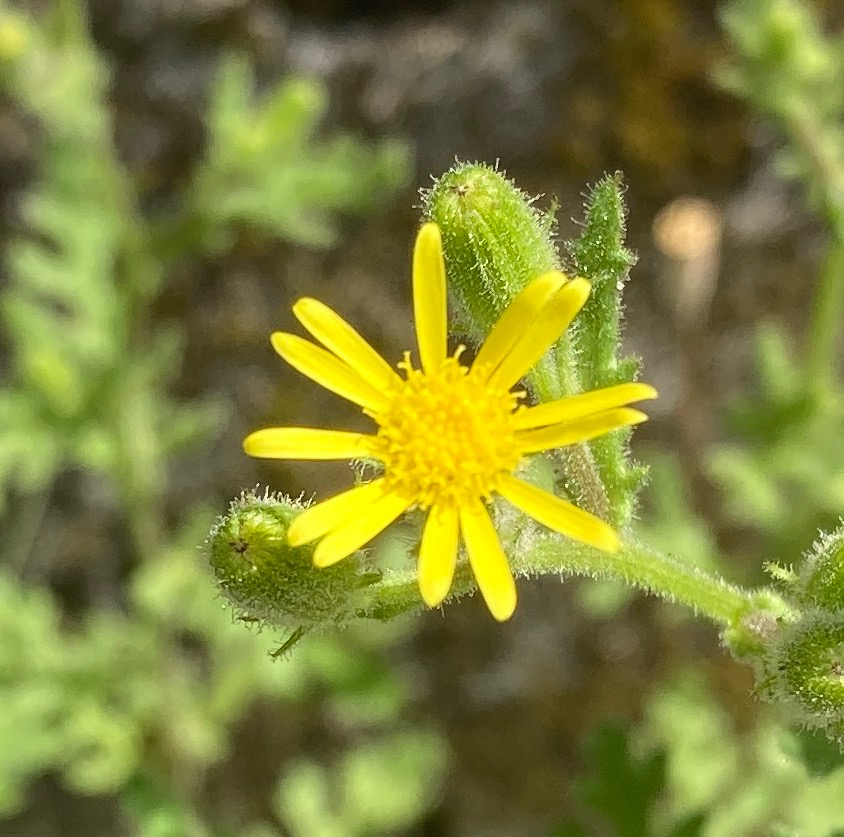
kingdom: Plantae
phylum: Tracheophyta
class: Magnoliopsida
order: Asterales
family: Asteraceae
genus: Senecio
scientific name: Senecio viscosus
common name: Klæbrig brandbæger
